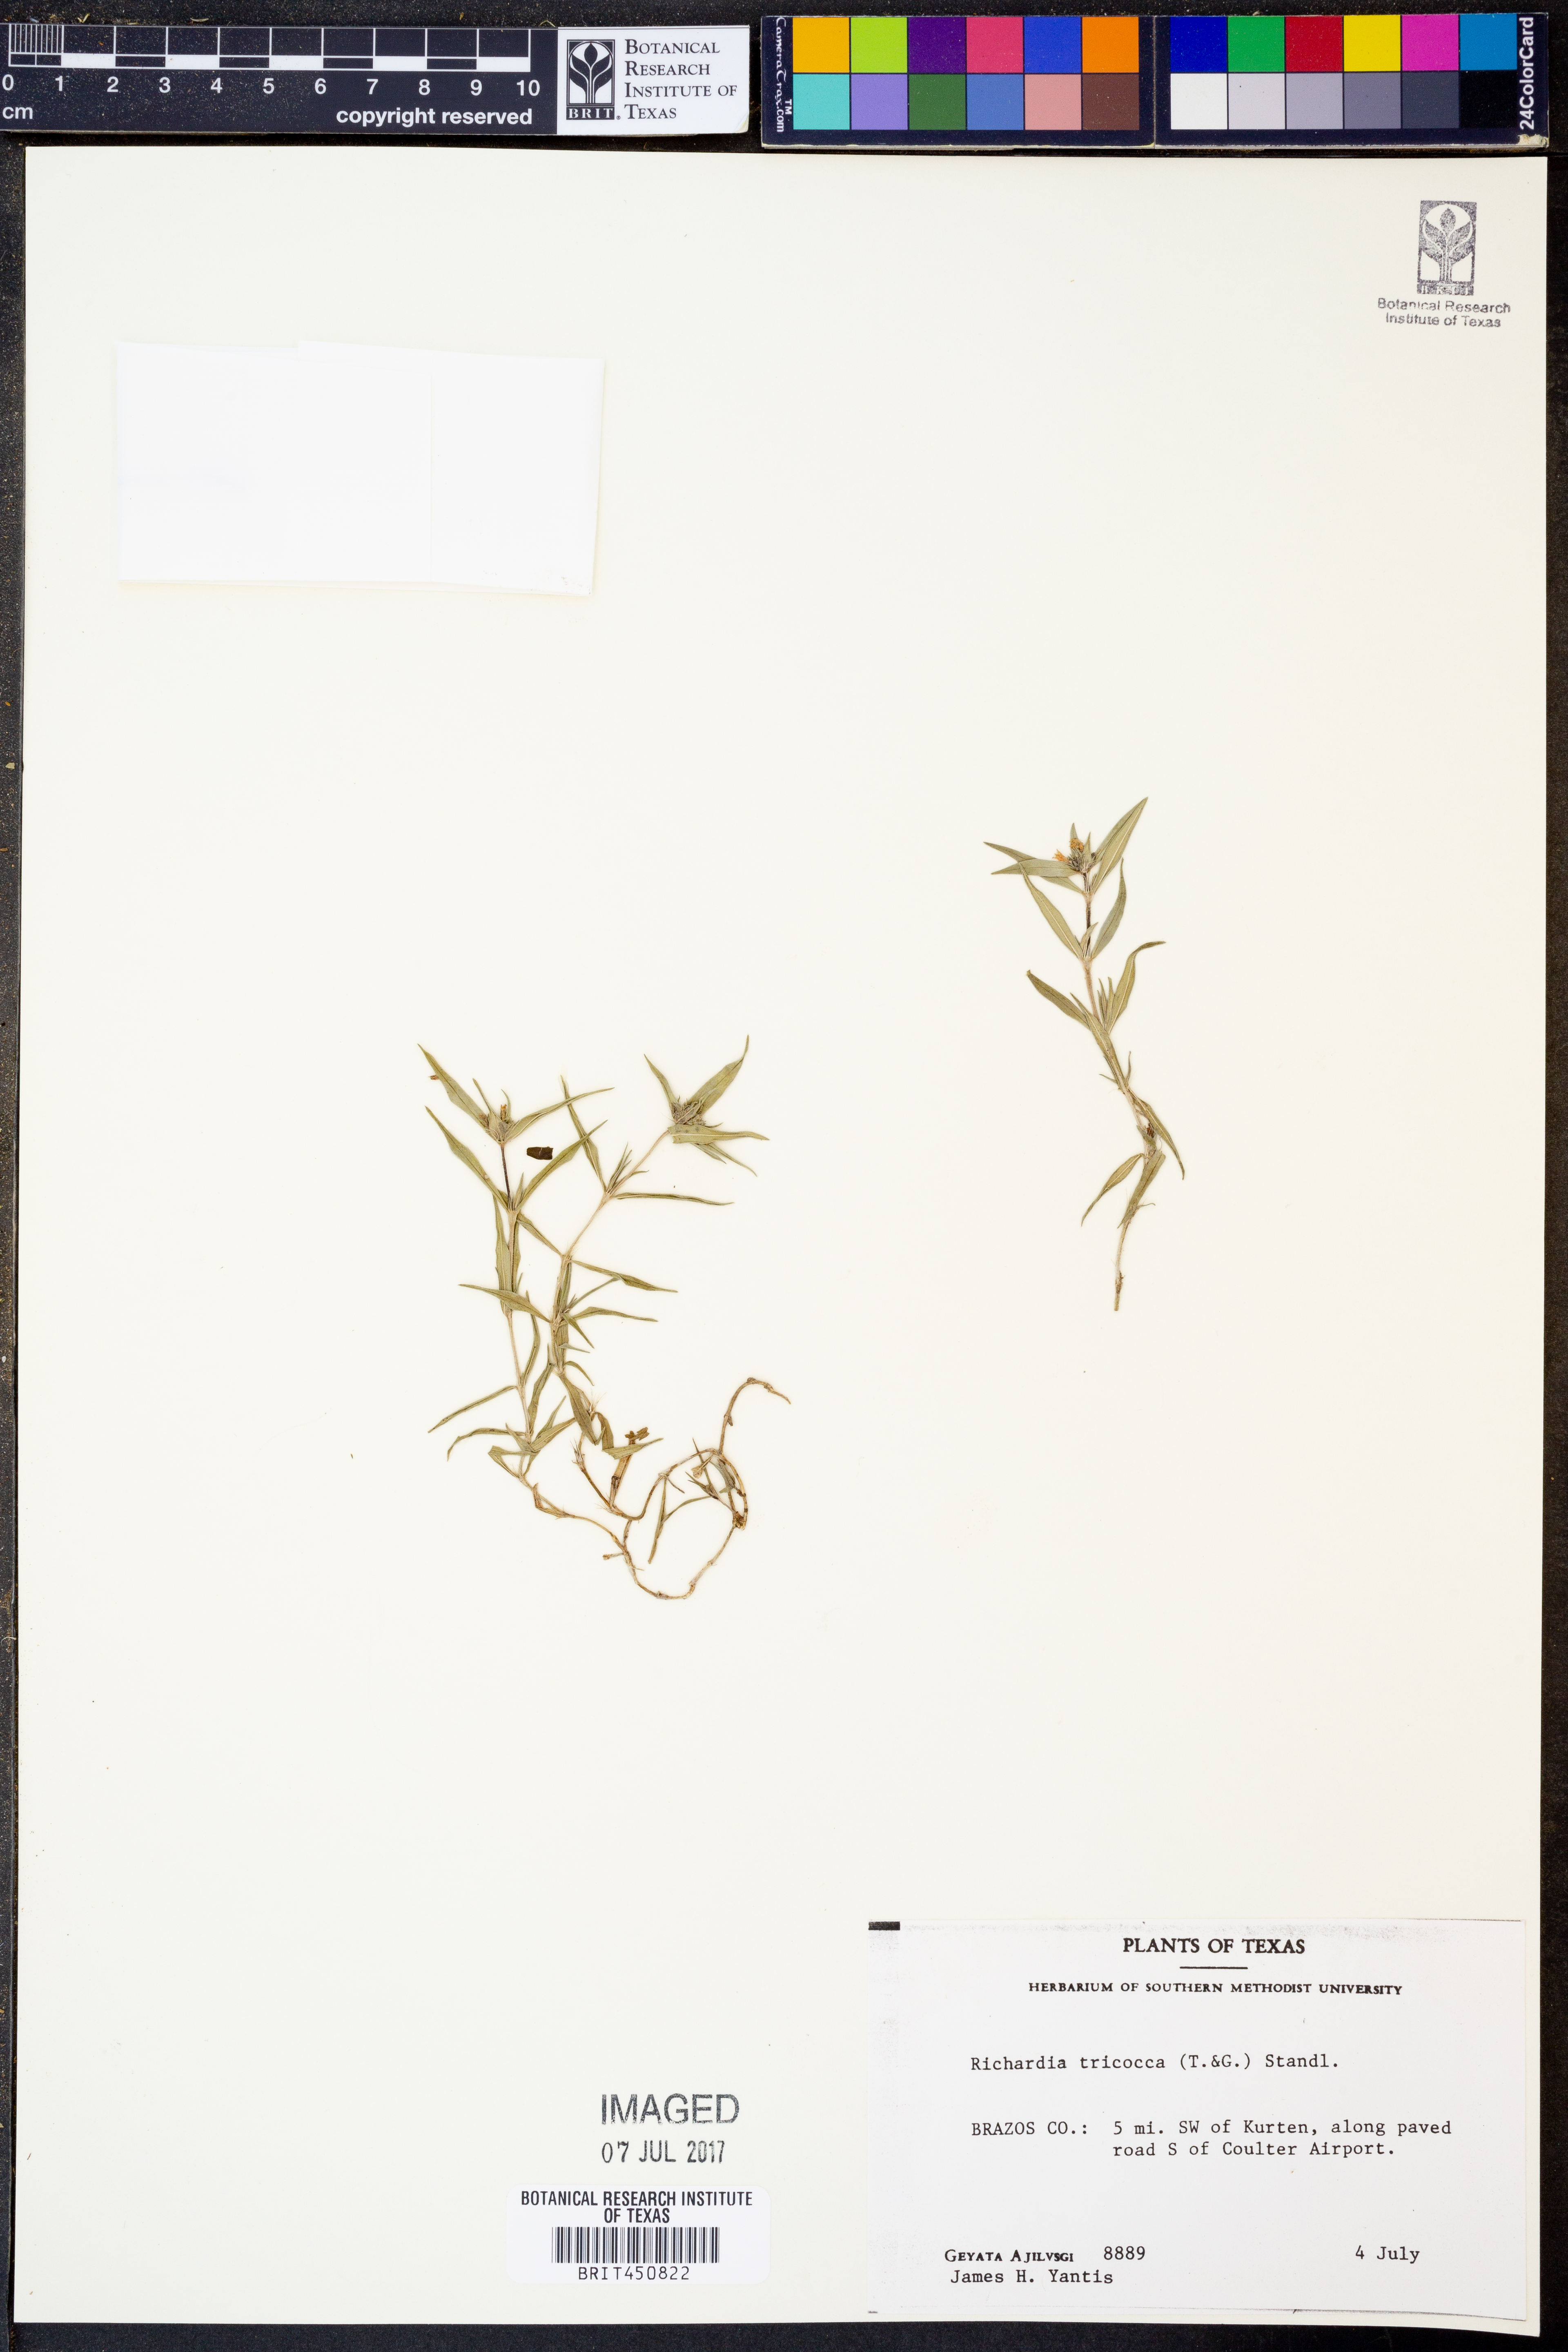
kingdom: Plantae
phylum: Tracheophyta
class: Magnoliopsida
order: Gentianales
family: Rubiaceae
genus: Richardia
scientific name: Richardia tricocca
